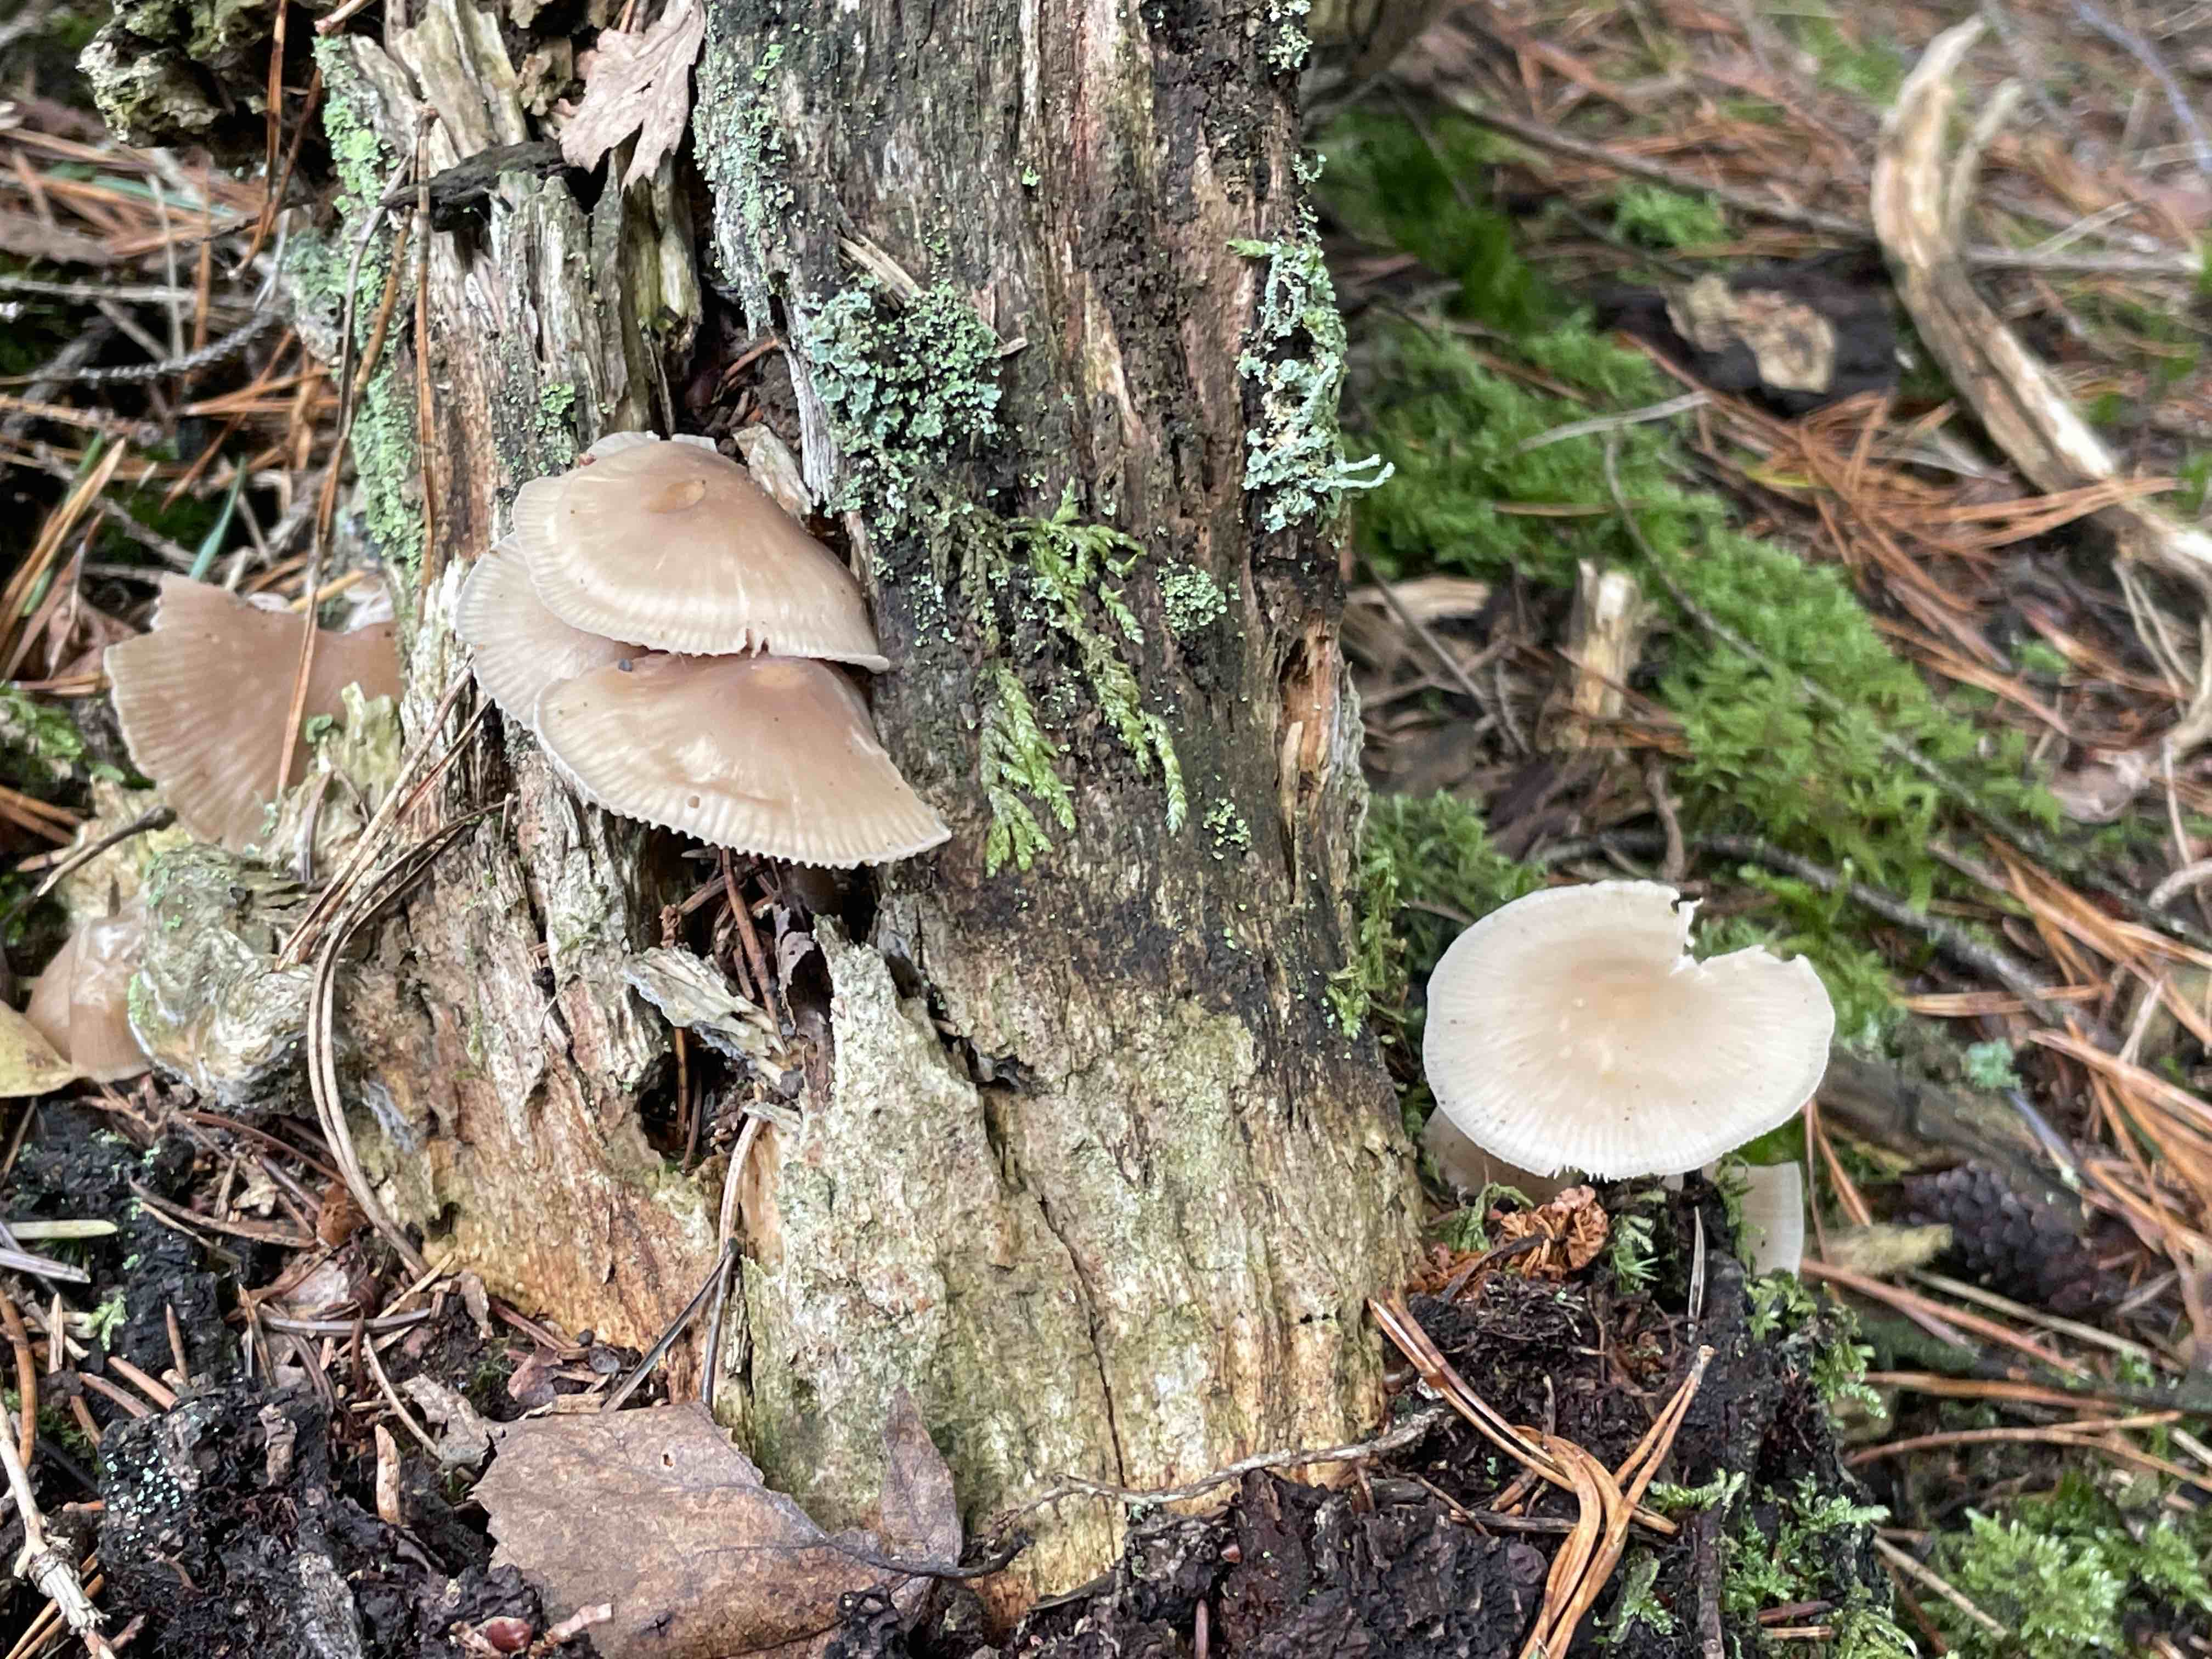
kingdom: Fungi
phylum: Basidiomycota
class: Agaricomycetes
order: Agaricales
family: Mycenaceae
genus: Mycena
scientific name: Mycena galericulata
